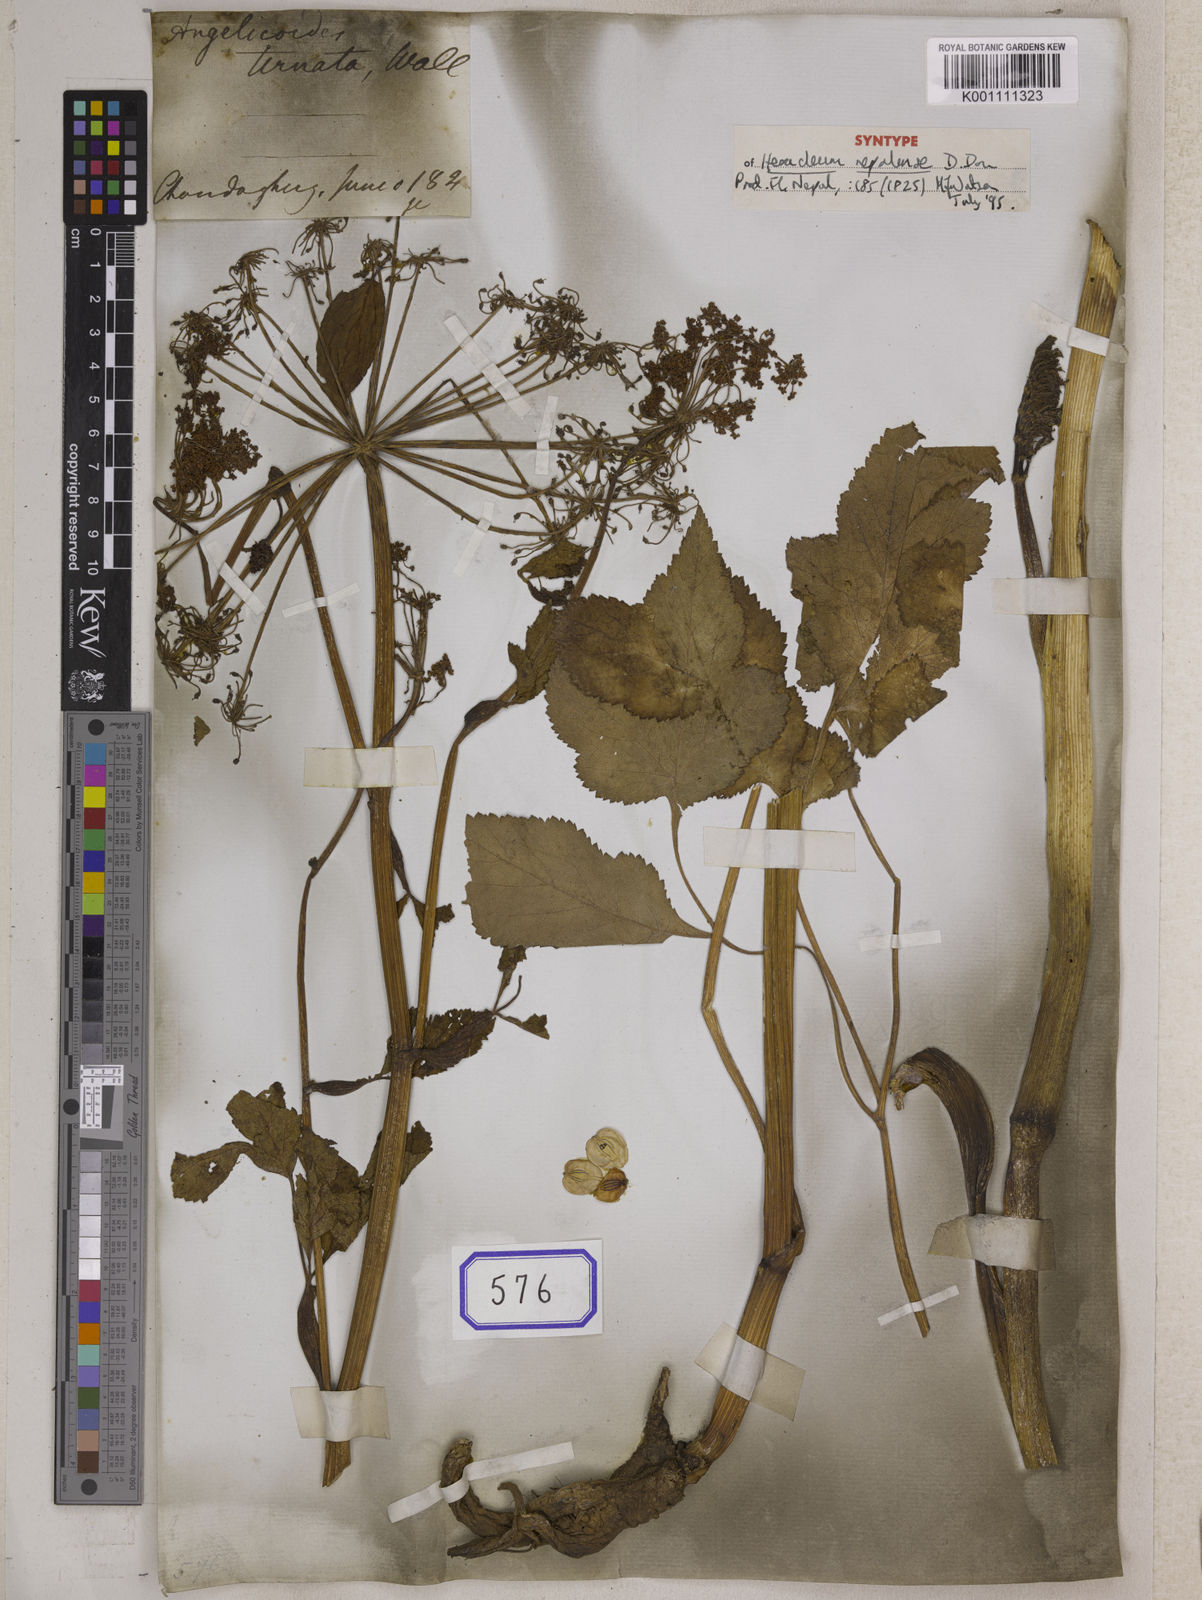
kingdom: Plantae
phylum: Tracheophyta
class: Magnoliopsida
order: Apiales
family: Apiaceae
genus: Tetrataenium
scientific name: Tetrataenium nepalense
